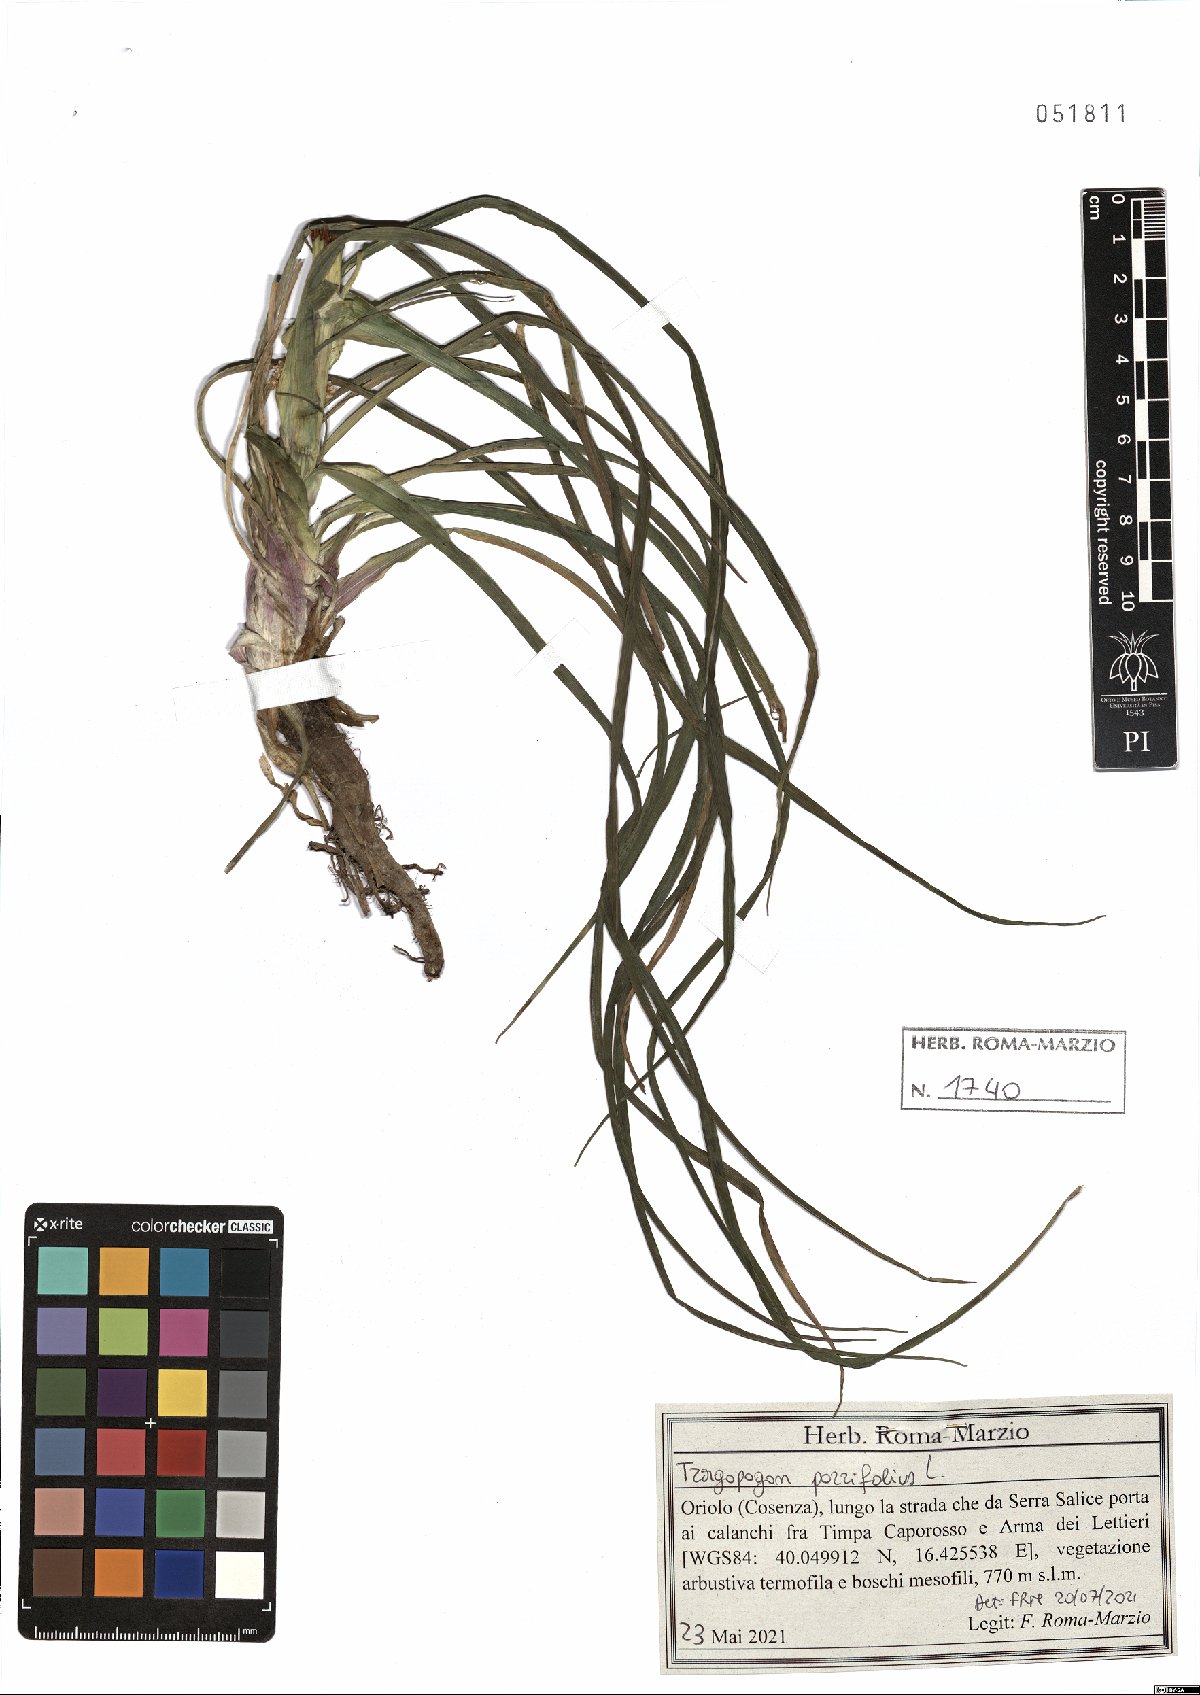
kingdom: Plantae
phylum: Tracheophyta
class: Magnoliopsida
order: Asterales
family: Asteraceae
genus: Tragopogon
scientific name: Tragopogon porrifolius
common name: Salsify
